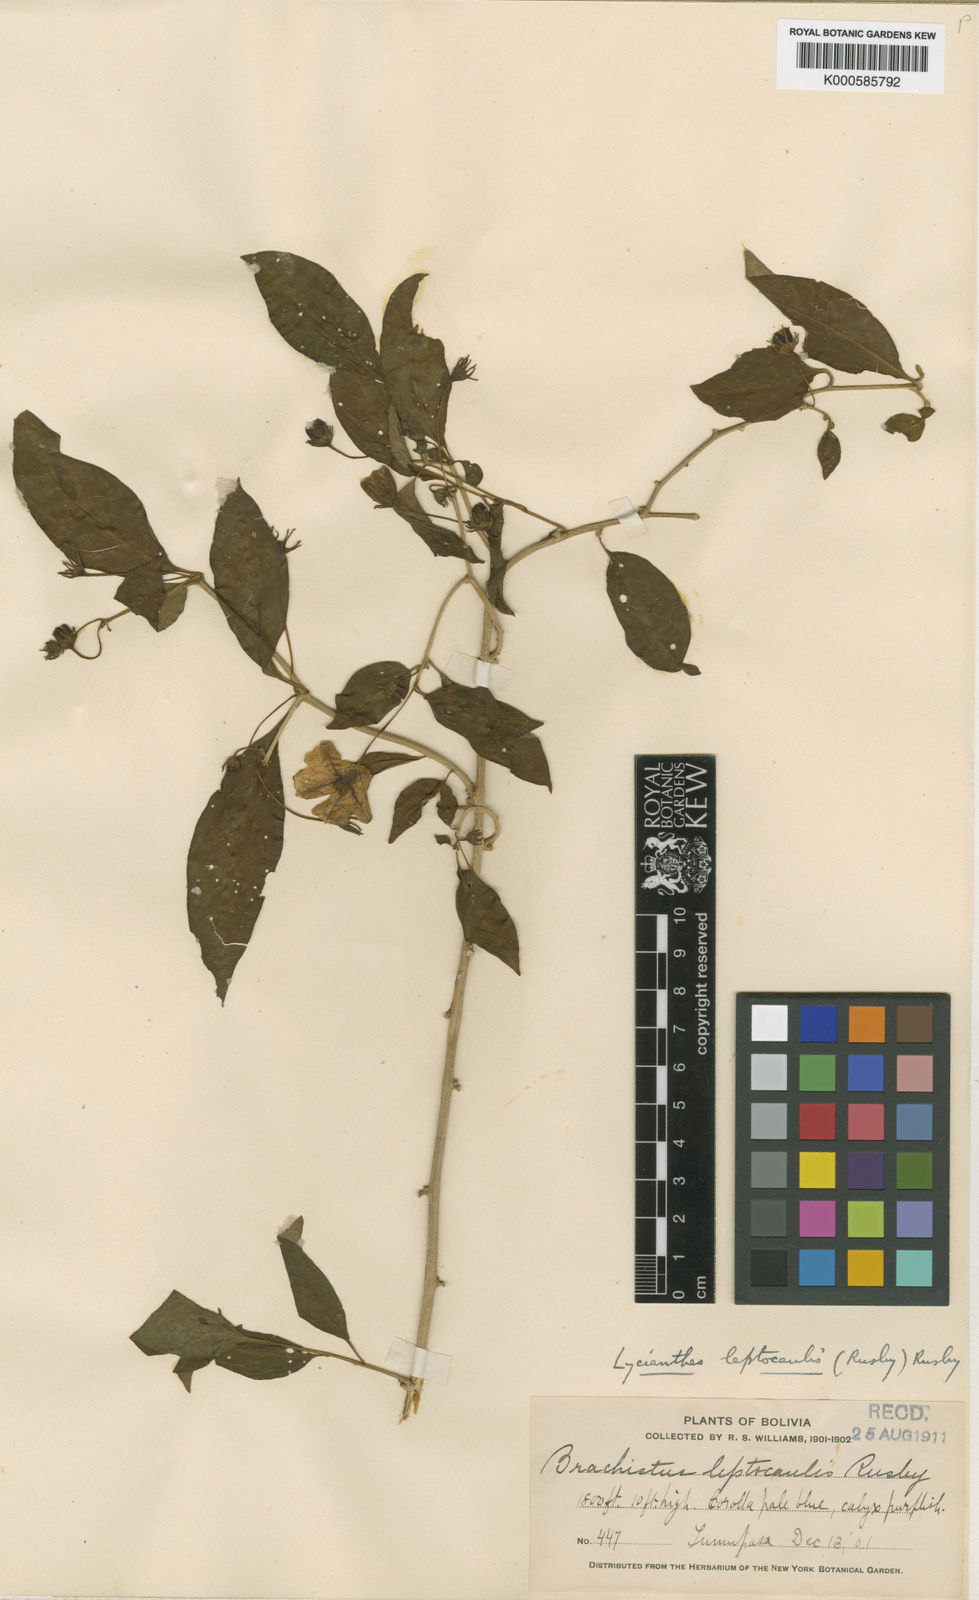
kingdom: Plantae
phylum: Tracheophyta
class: Magnoliopsida
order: Solanales
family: Solanaceae
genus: Lycianthes
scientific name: Lycianthes leptocaulis
